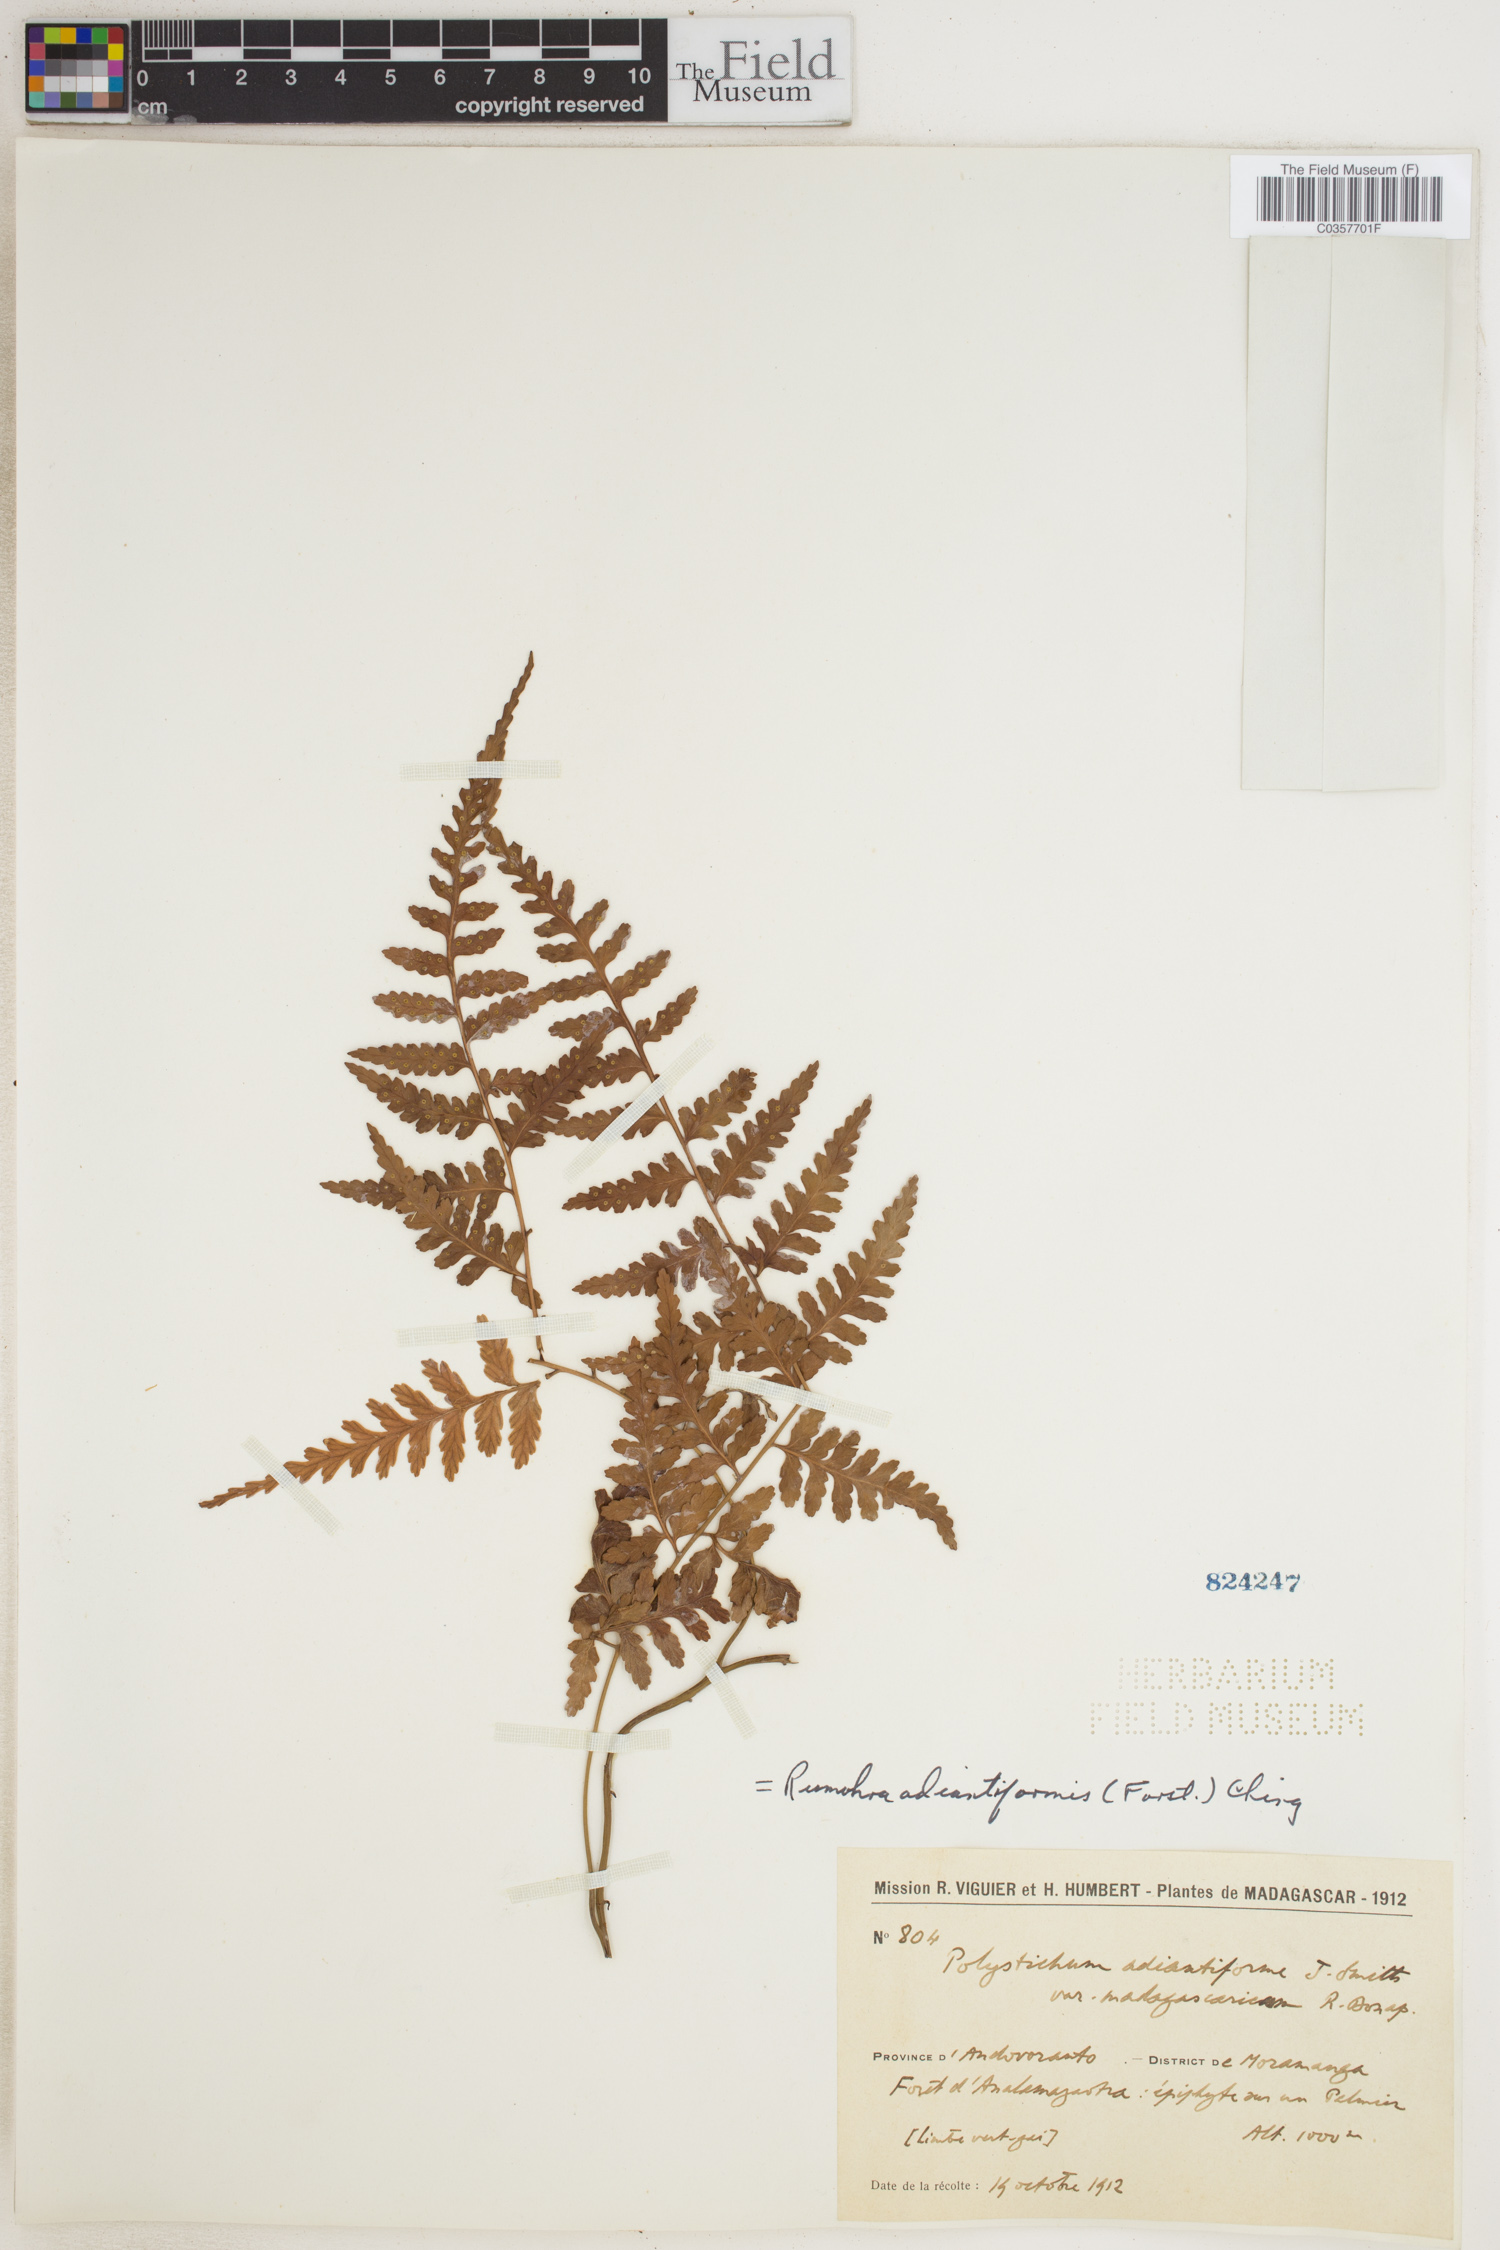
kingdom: Plantae
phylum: Tracheophyta
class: Polypodiopsida
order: Polypodiales
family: Dryopteridaceae
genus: Rumohra
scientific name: Rumohra adiantiformis
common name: Leather fern
